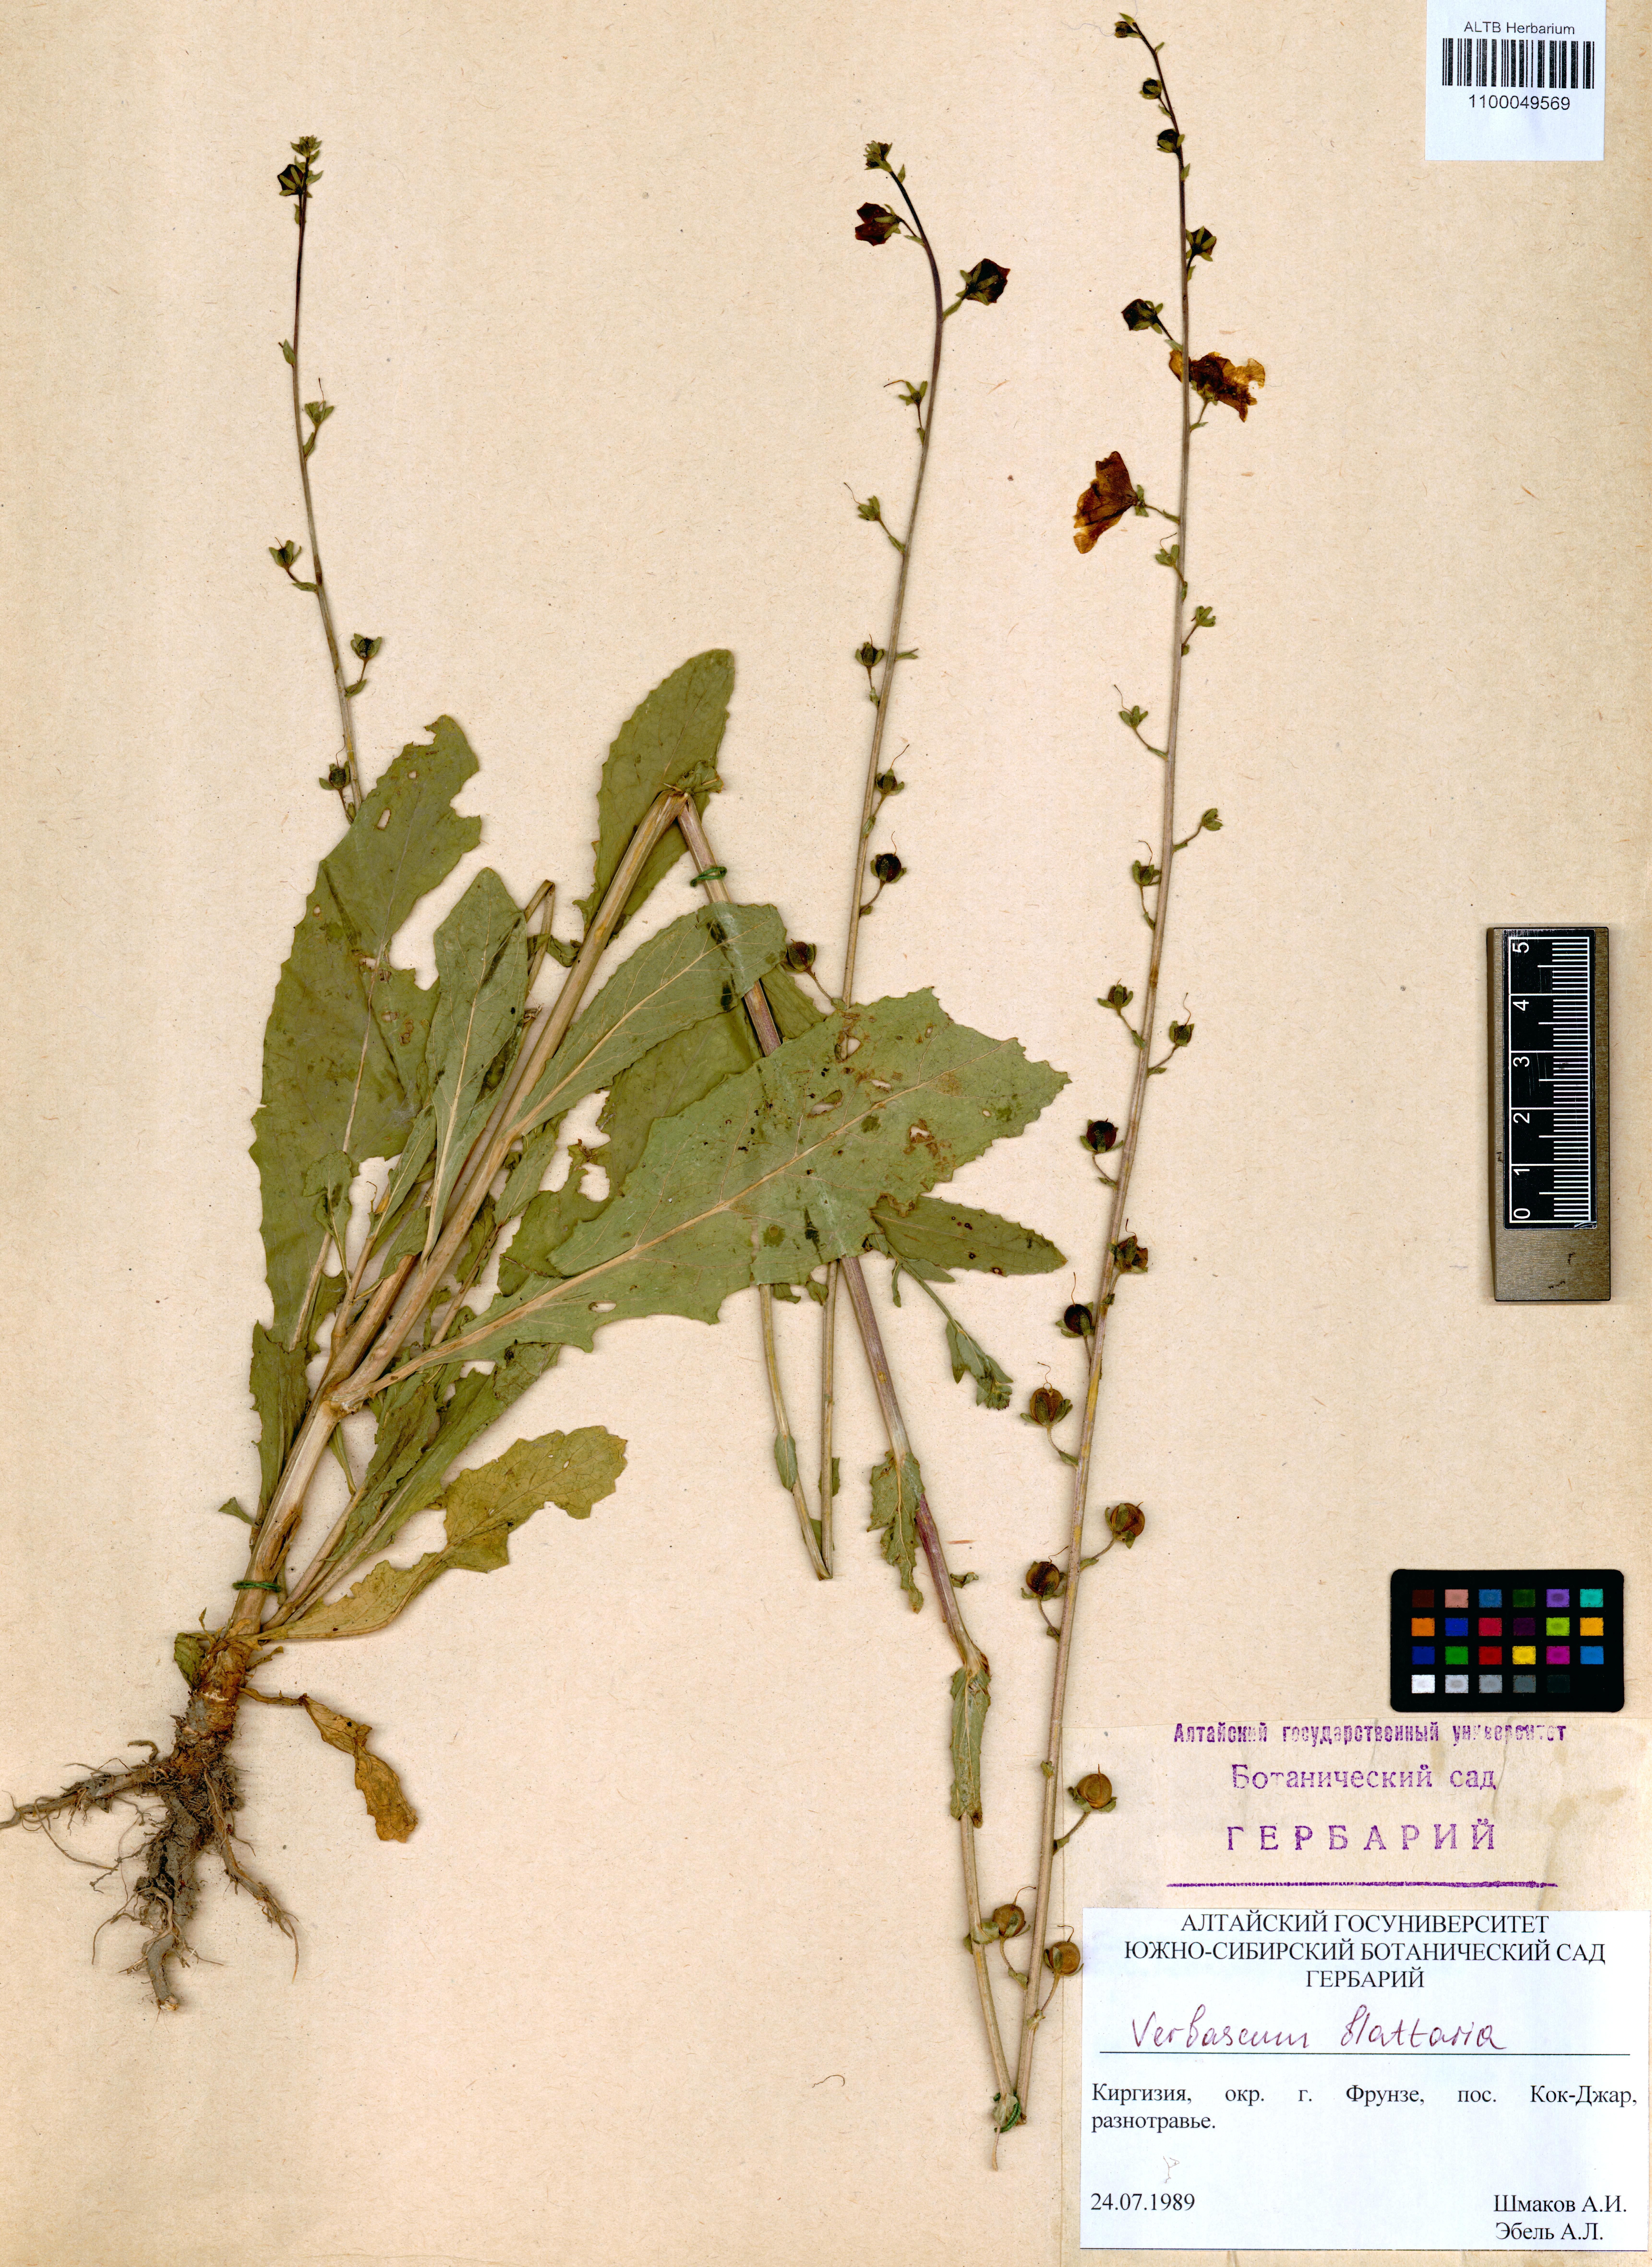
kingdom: Plantae
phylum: Tracheophyta
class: Magnoliopsida
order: Lamiales
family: Scrophulariaceae
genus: Verbascum
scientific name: Verbascum blattaria
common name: Moth mullein
